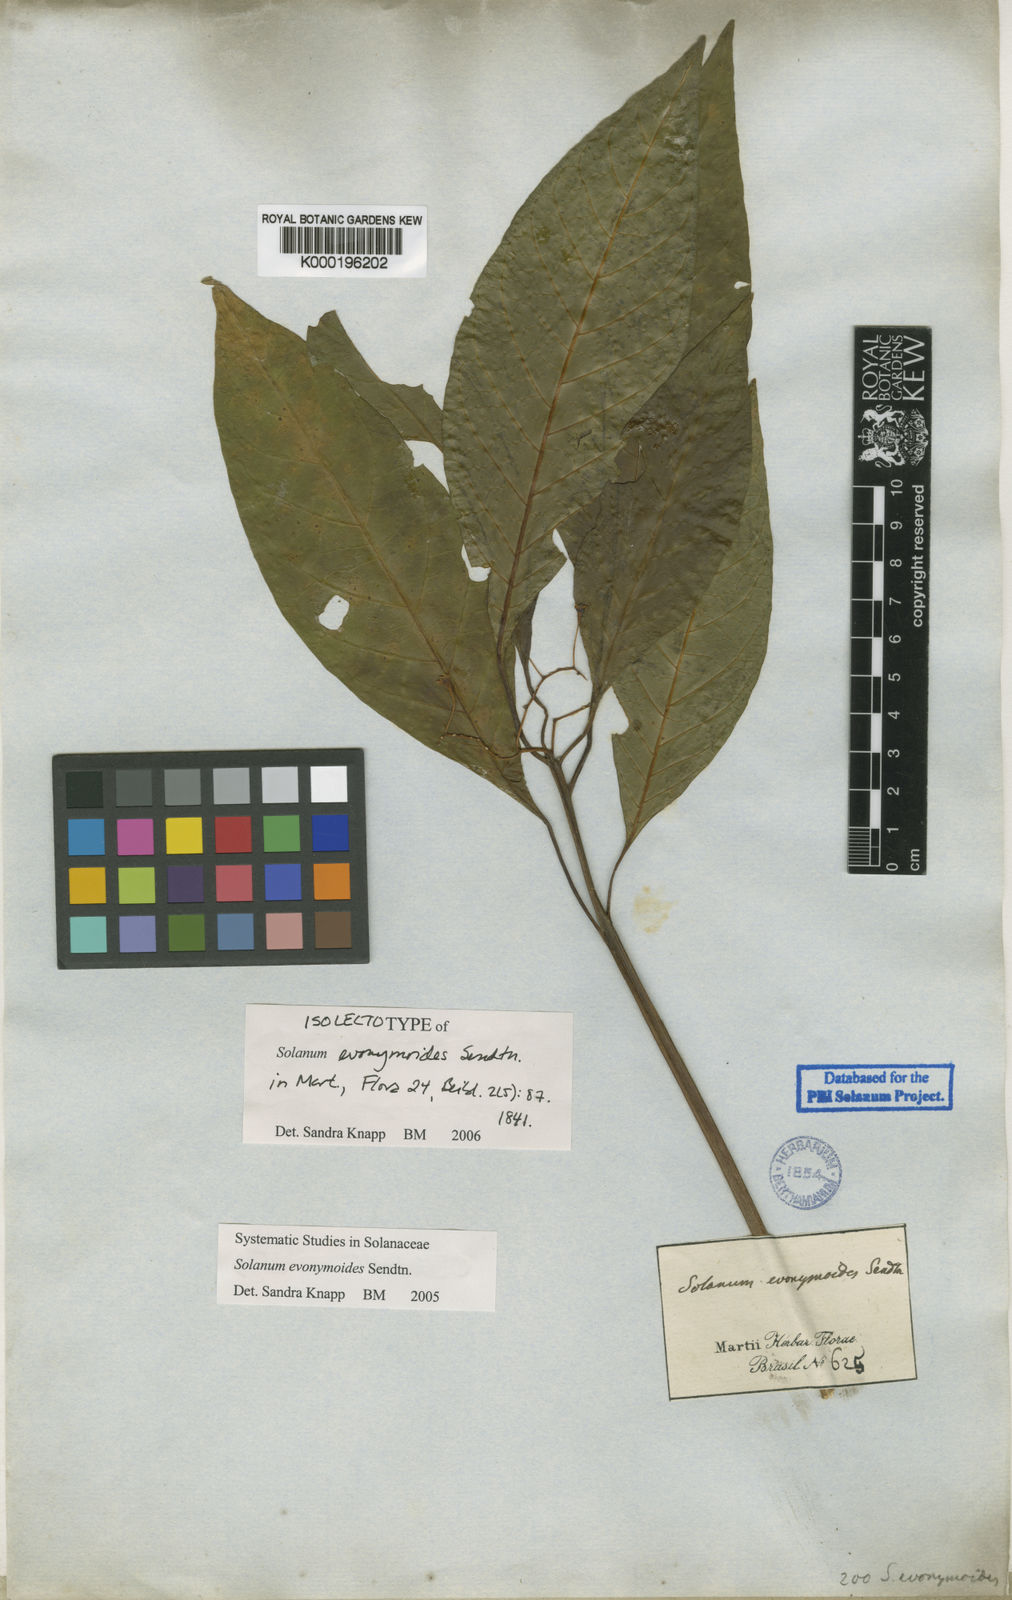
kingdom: Plantae
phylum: Tracheophyta
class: Magnoliopsida
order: Solanales
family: Solanaceae
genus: Solanum
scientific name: Solanum evonymoides
